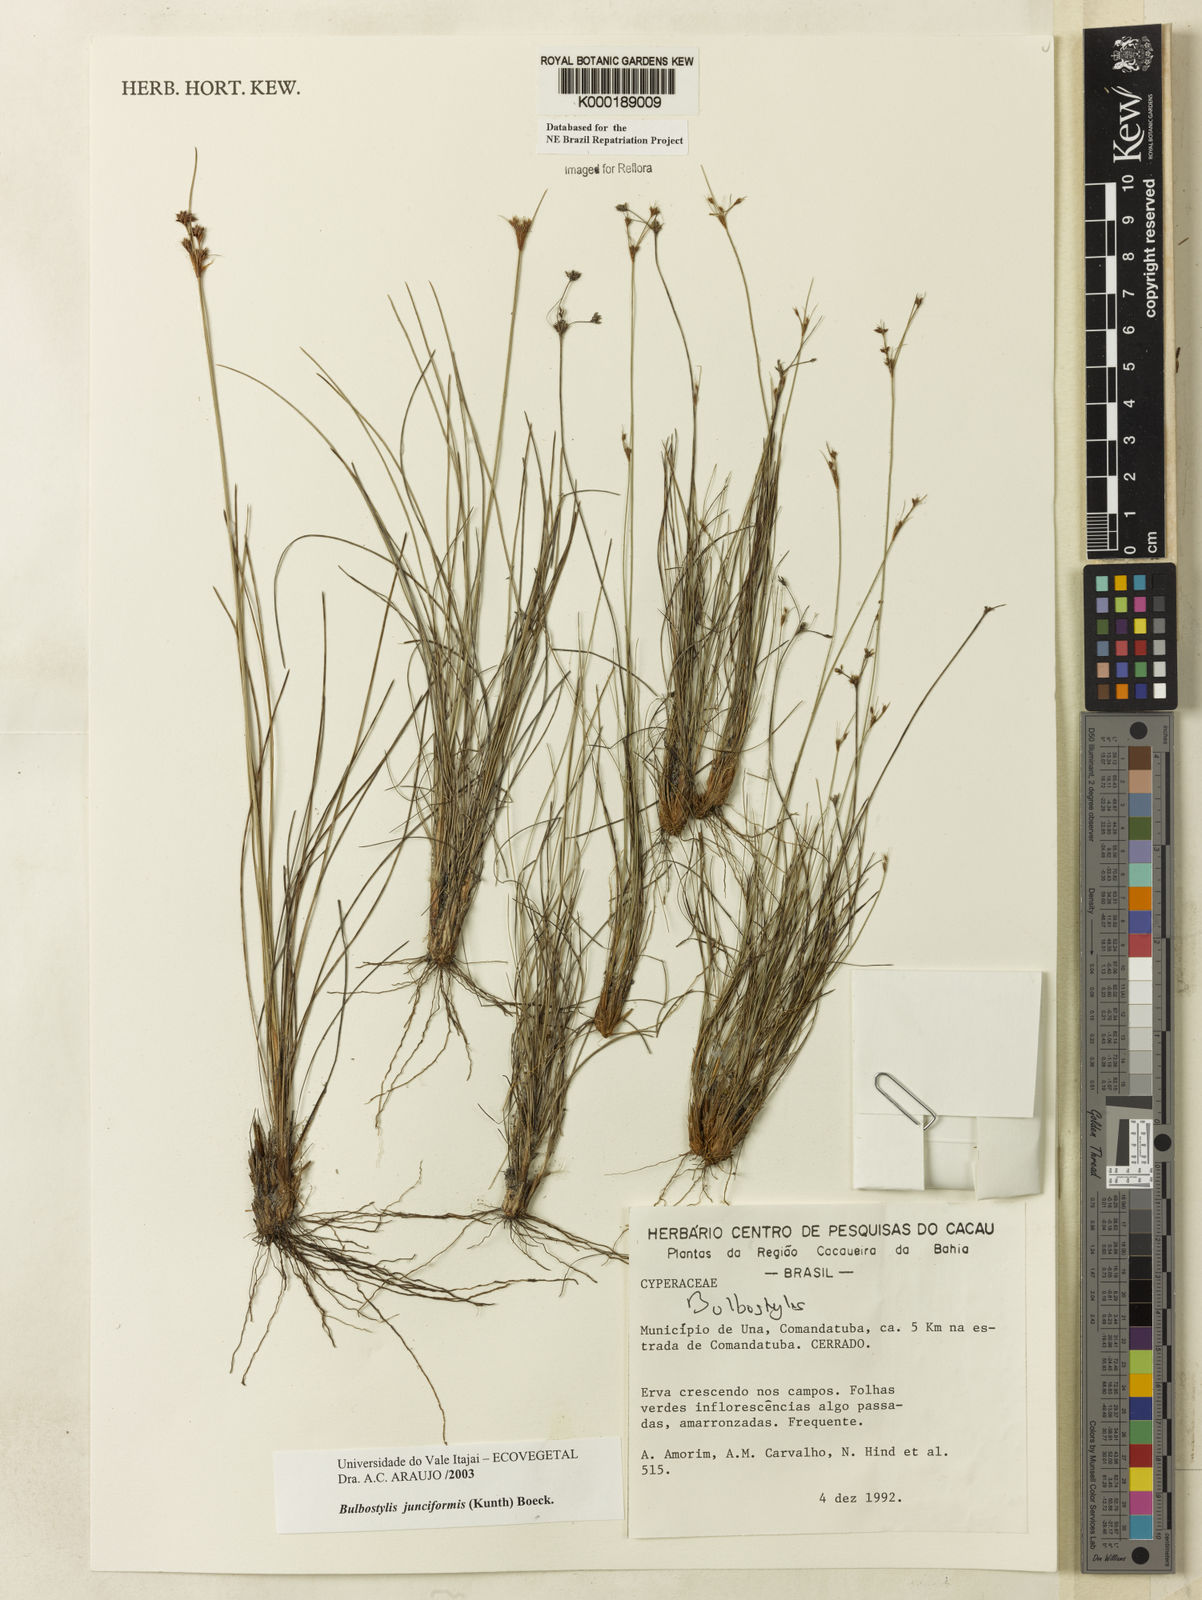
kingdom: Plantae
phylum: Tracheophyta
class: Liliopsida
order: Poales
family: Cyperaceae
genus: Bulbostylis
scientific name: Bulbostylis
